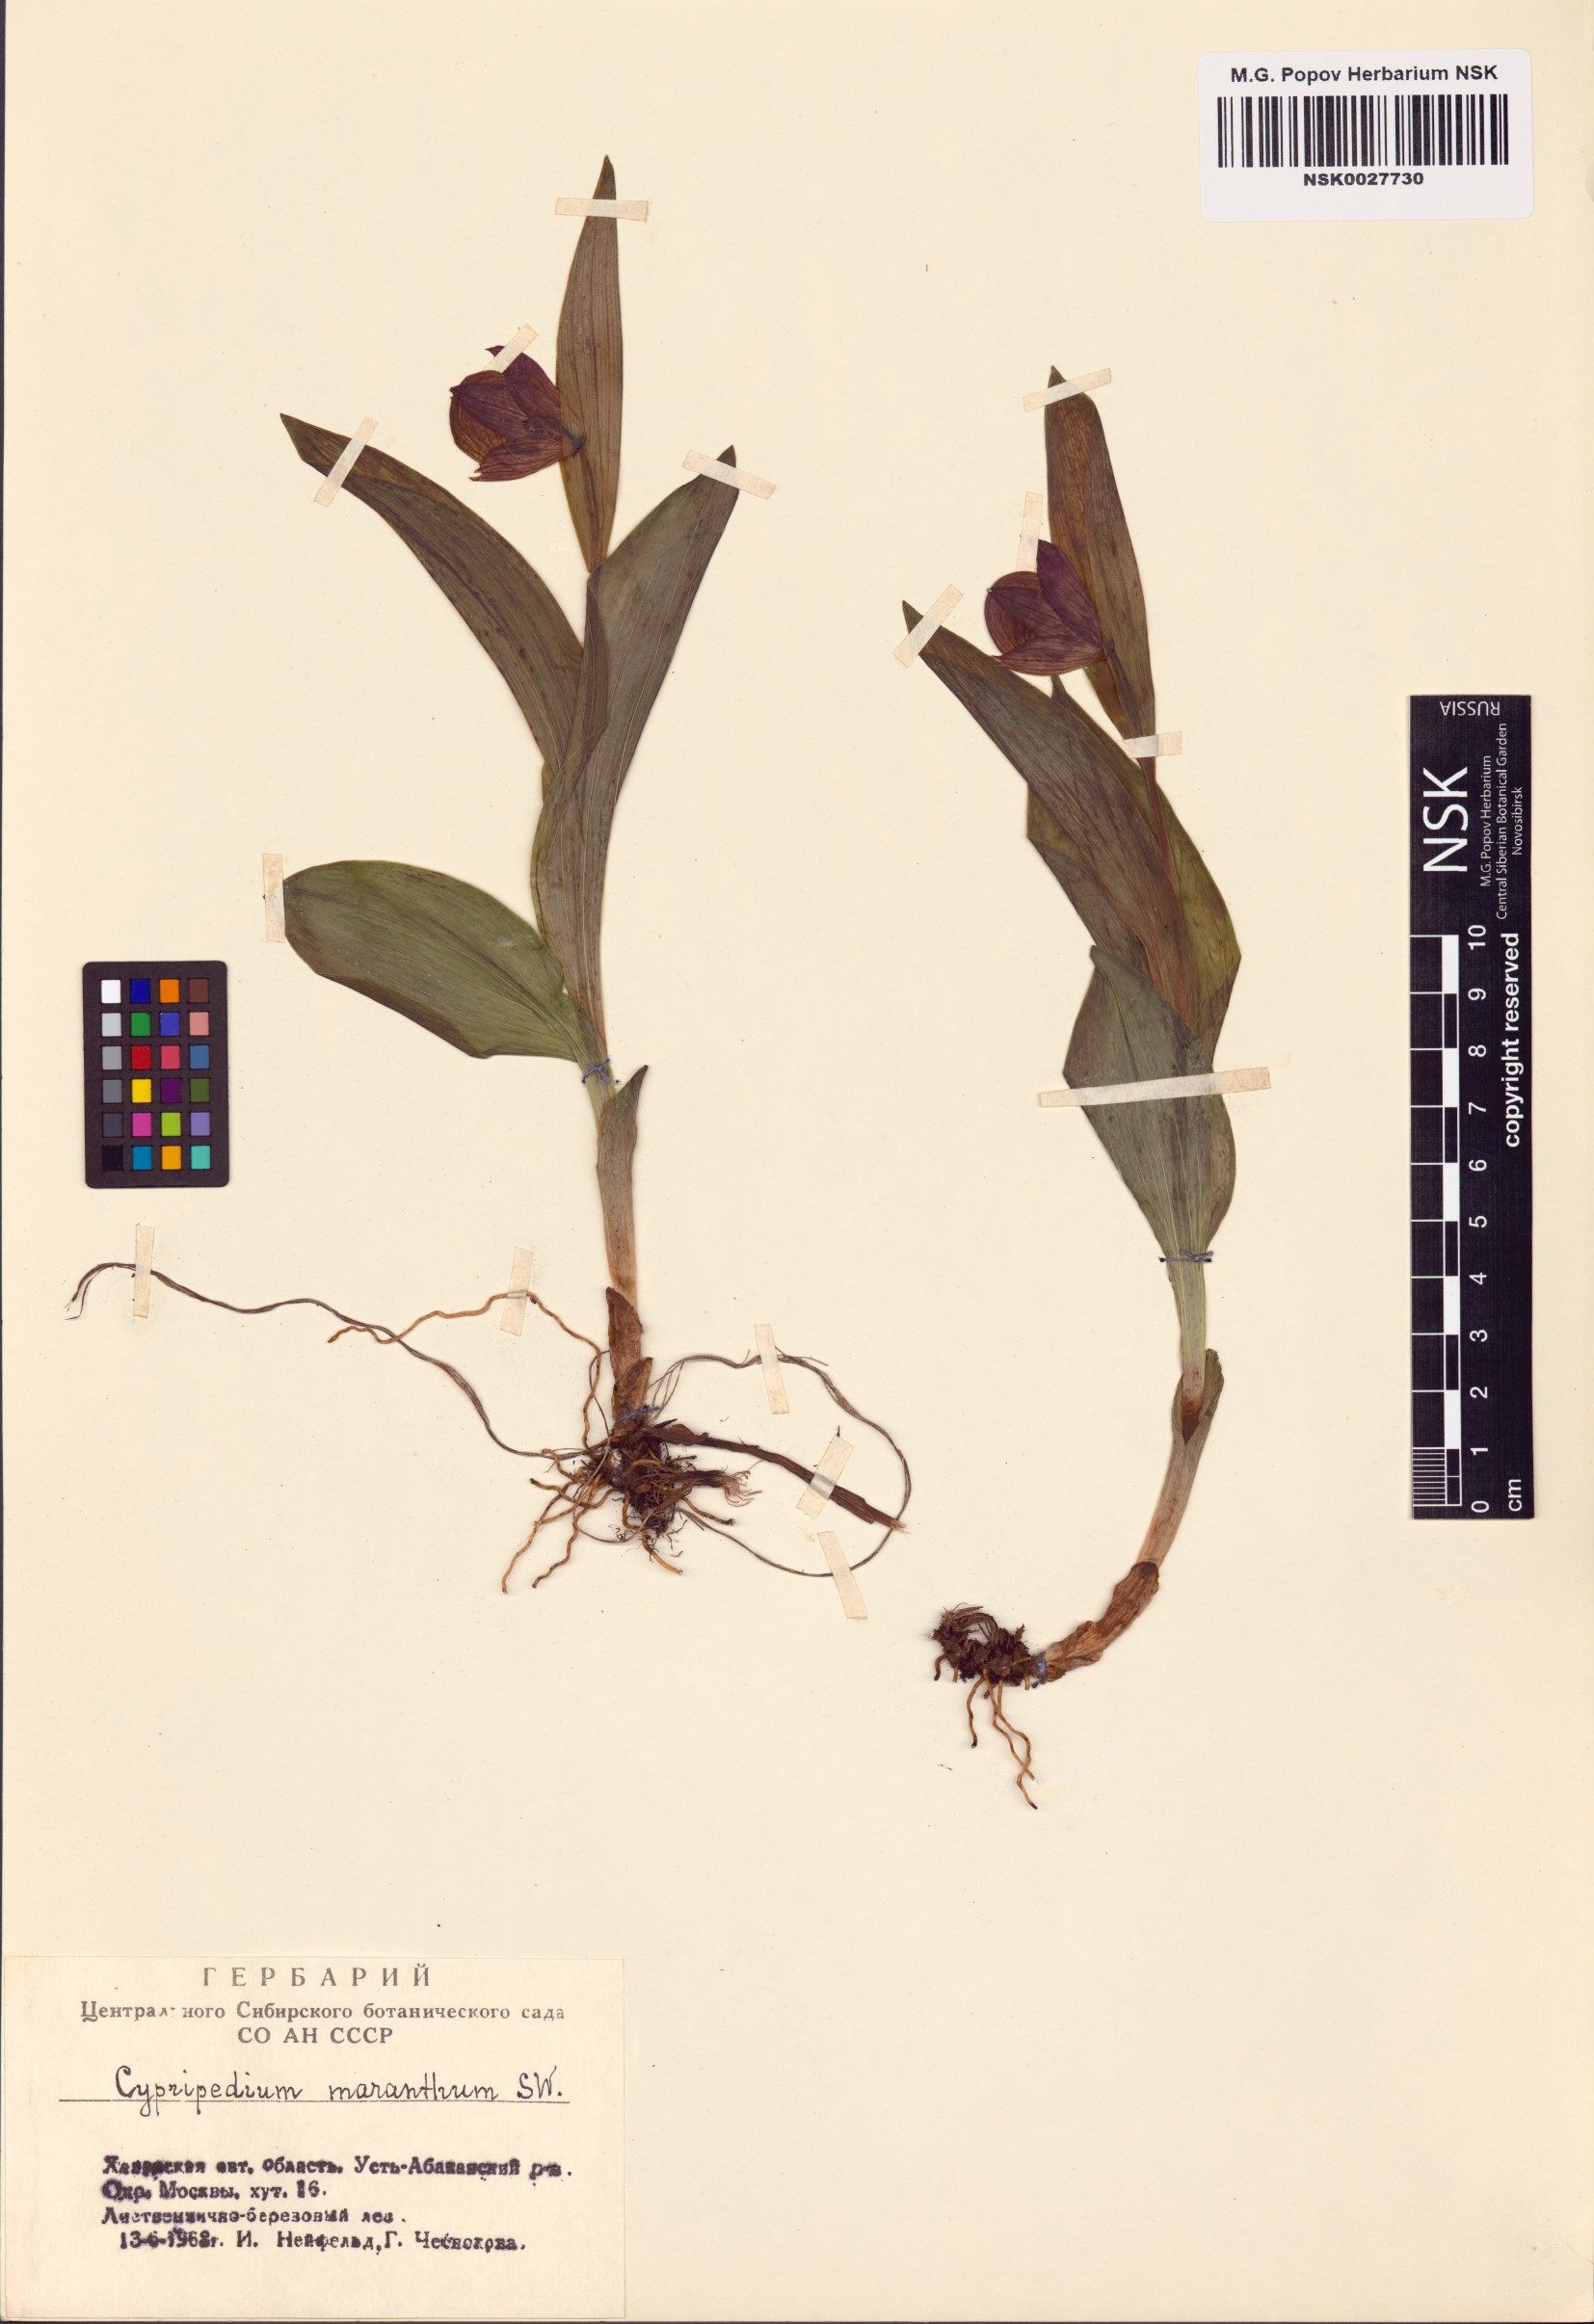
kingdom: Plantae
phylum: Tracheophyta
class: Liliopsida
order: Asparagales
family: Orchidaceae
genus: Cypripedium
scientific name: Cypripedium macranthos
